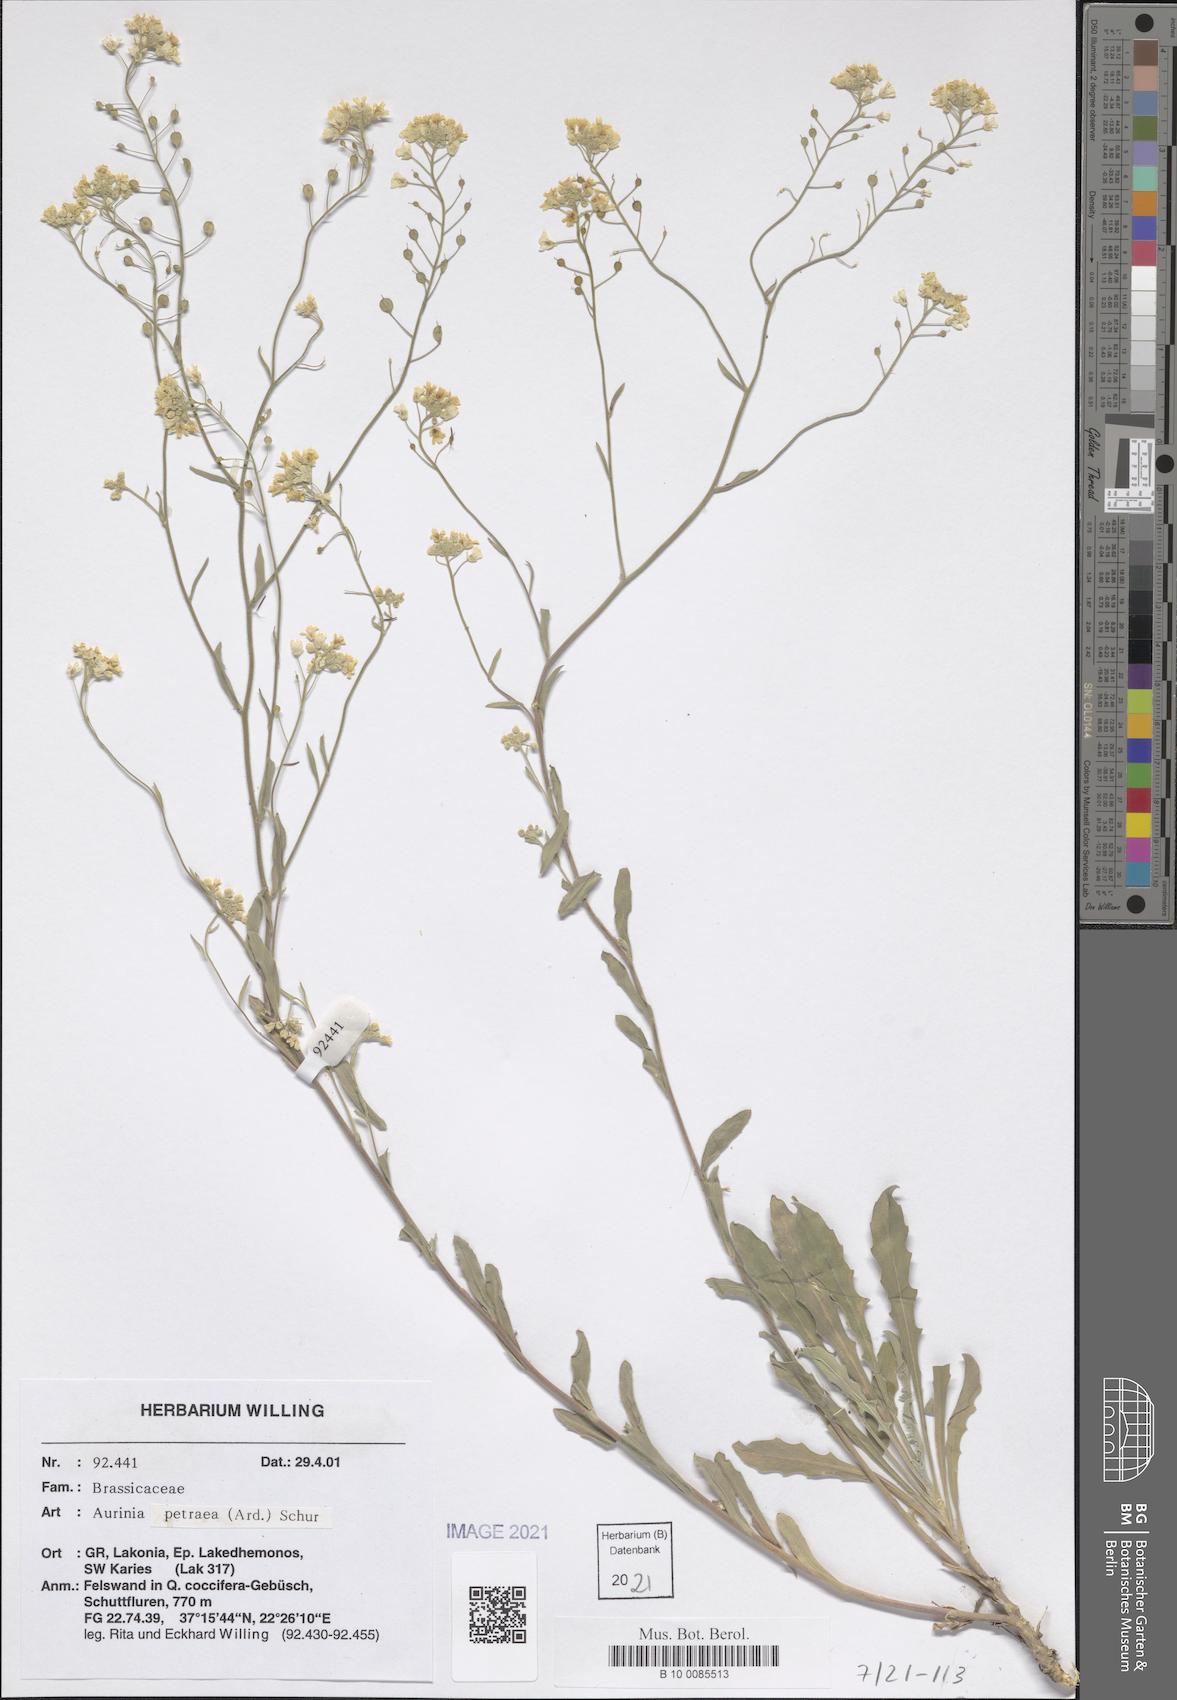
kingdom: Plantae
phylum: Tracheophyta
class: Magnoliopsida
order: Brassicales
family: Brassicaceae
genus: Aurinia
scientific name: Aurinia petraea
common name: Goldentuft
